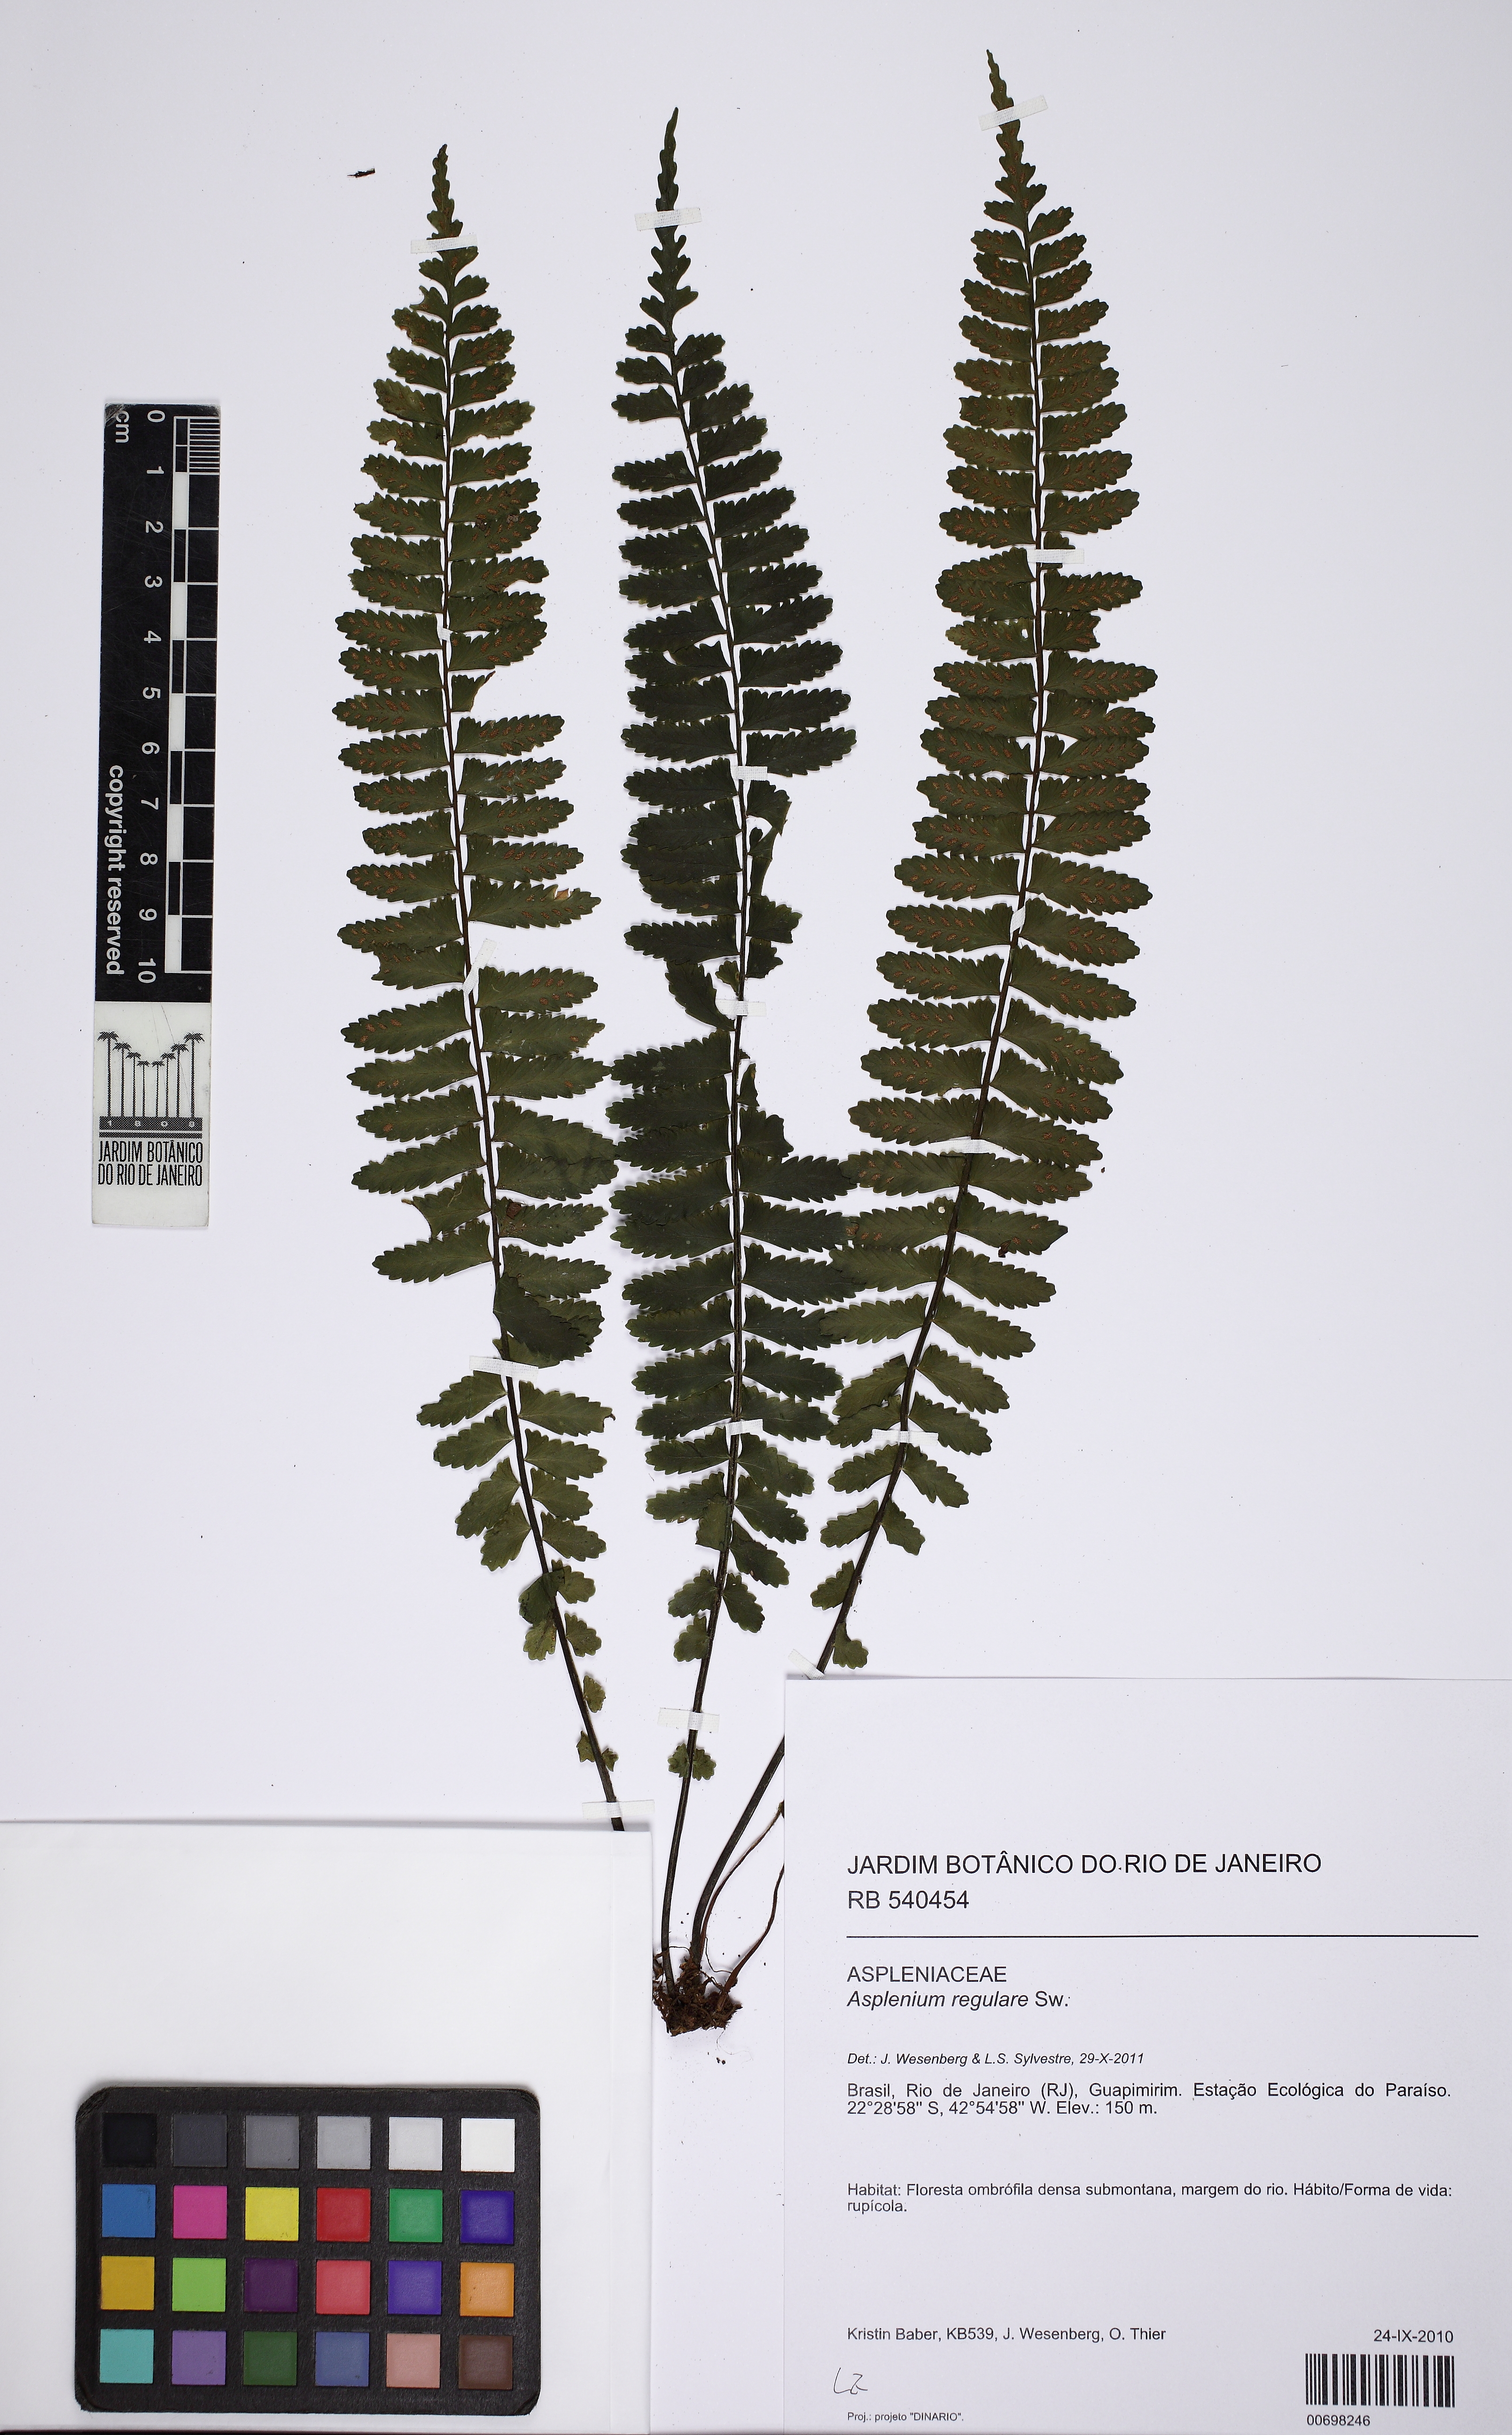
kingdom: Plantae
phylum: Tracheophyta
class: Polypodiopsida
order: Polypodiales
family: Aspleniaceae
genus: Asplenium
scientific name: Asplenium regulare
